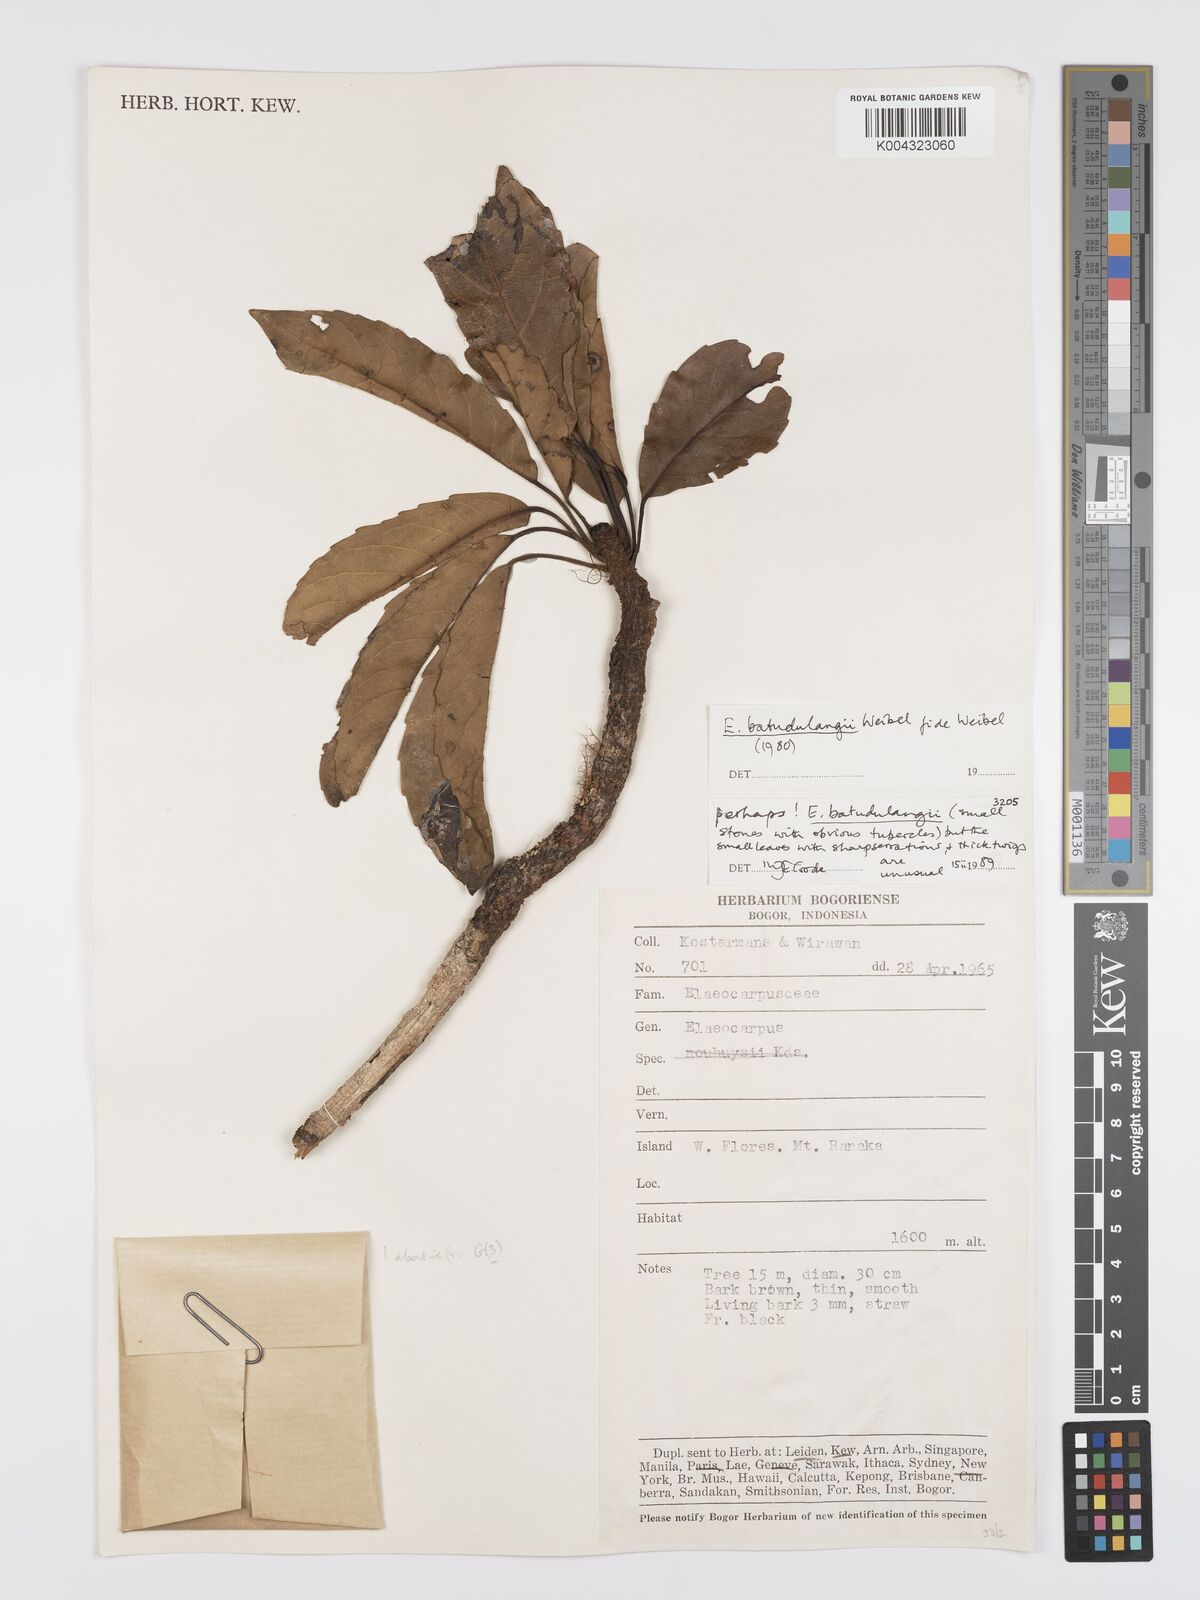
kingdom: Plantae
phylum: Tracheophyta
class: Magnoliopsida
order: Oxalidales
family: Elaeocarpaceae
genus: Elaeocarpus
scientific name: Elaeocarpus batudulangii
